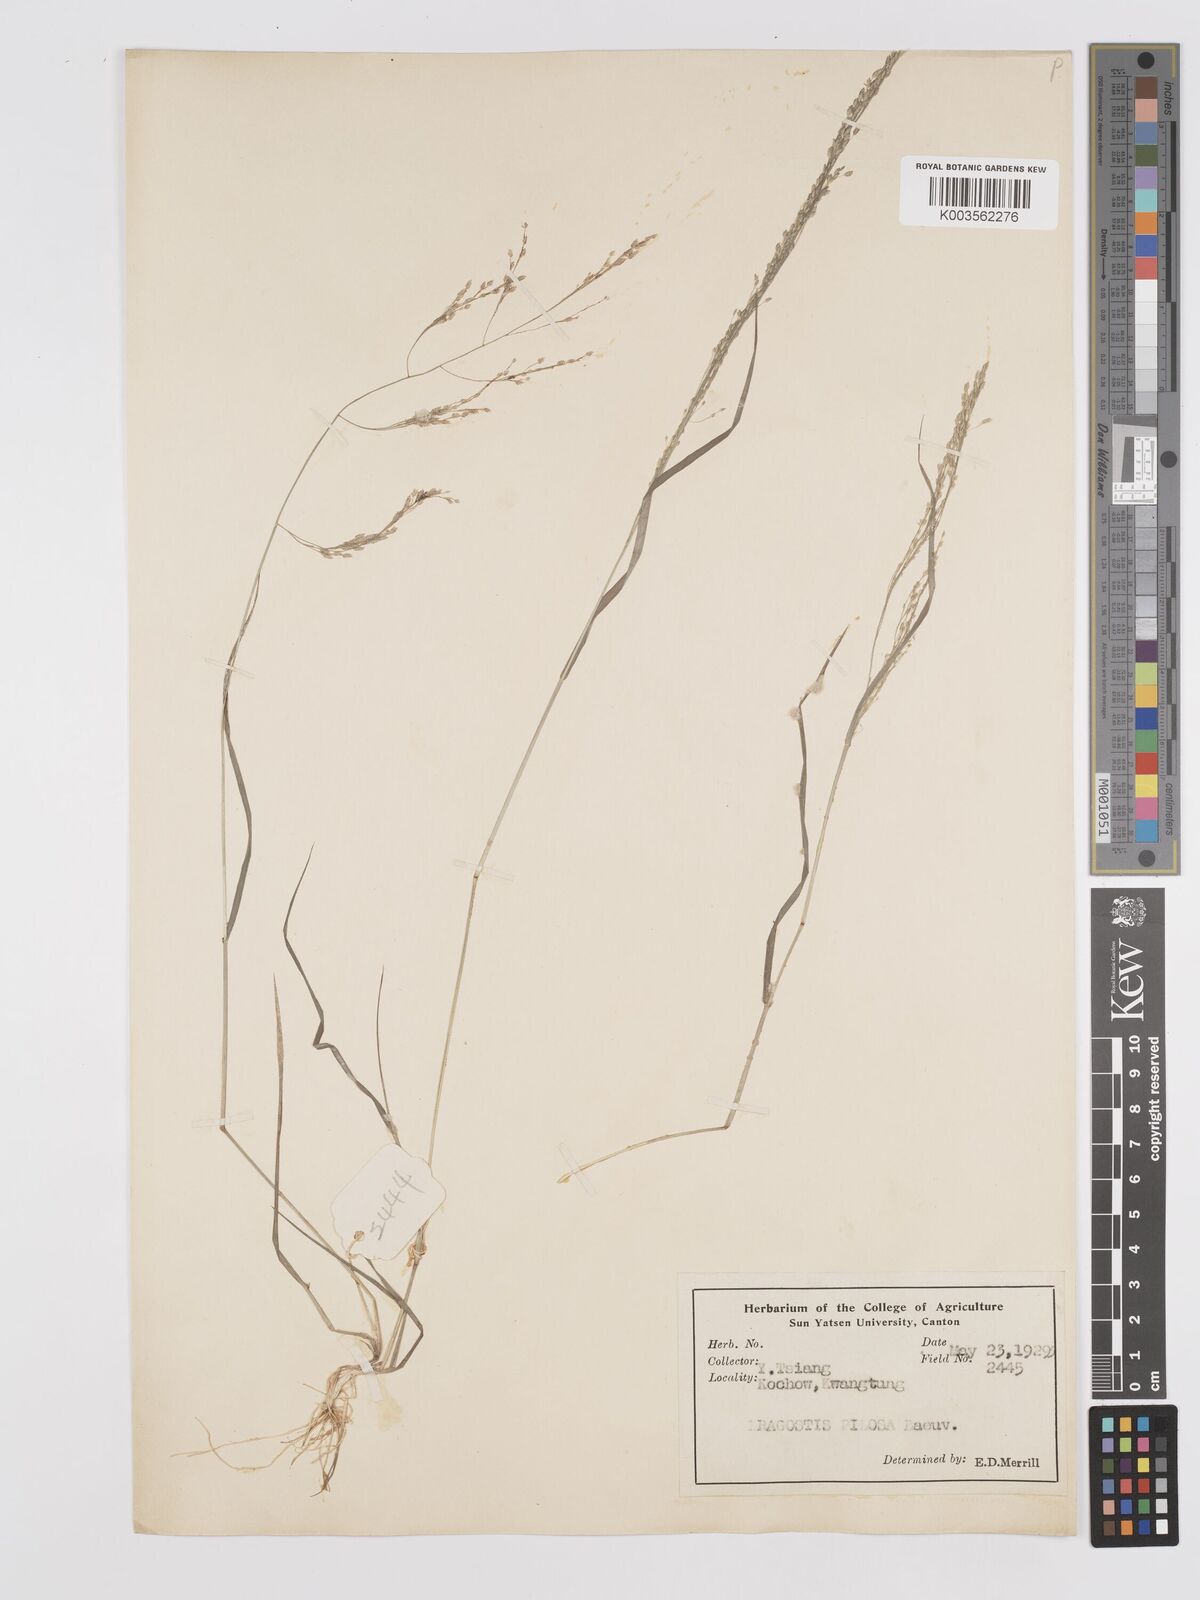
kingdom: Plantae
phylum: Tracheophyta
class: Liliopsida
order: Poales
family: Poaceae
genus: Eragrostis
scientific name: Eragrostis pilosa
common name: Indian lovegrass
